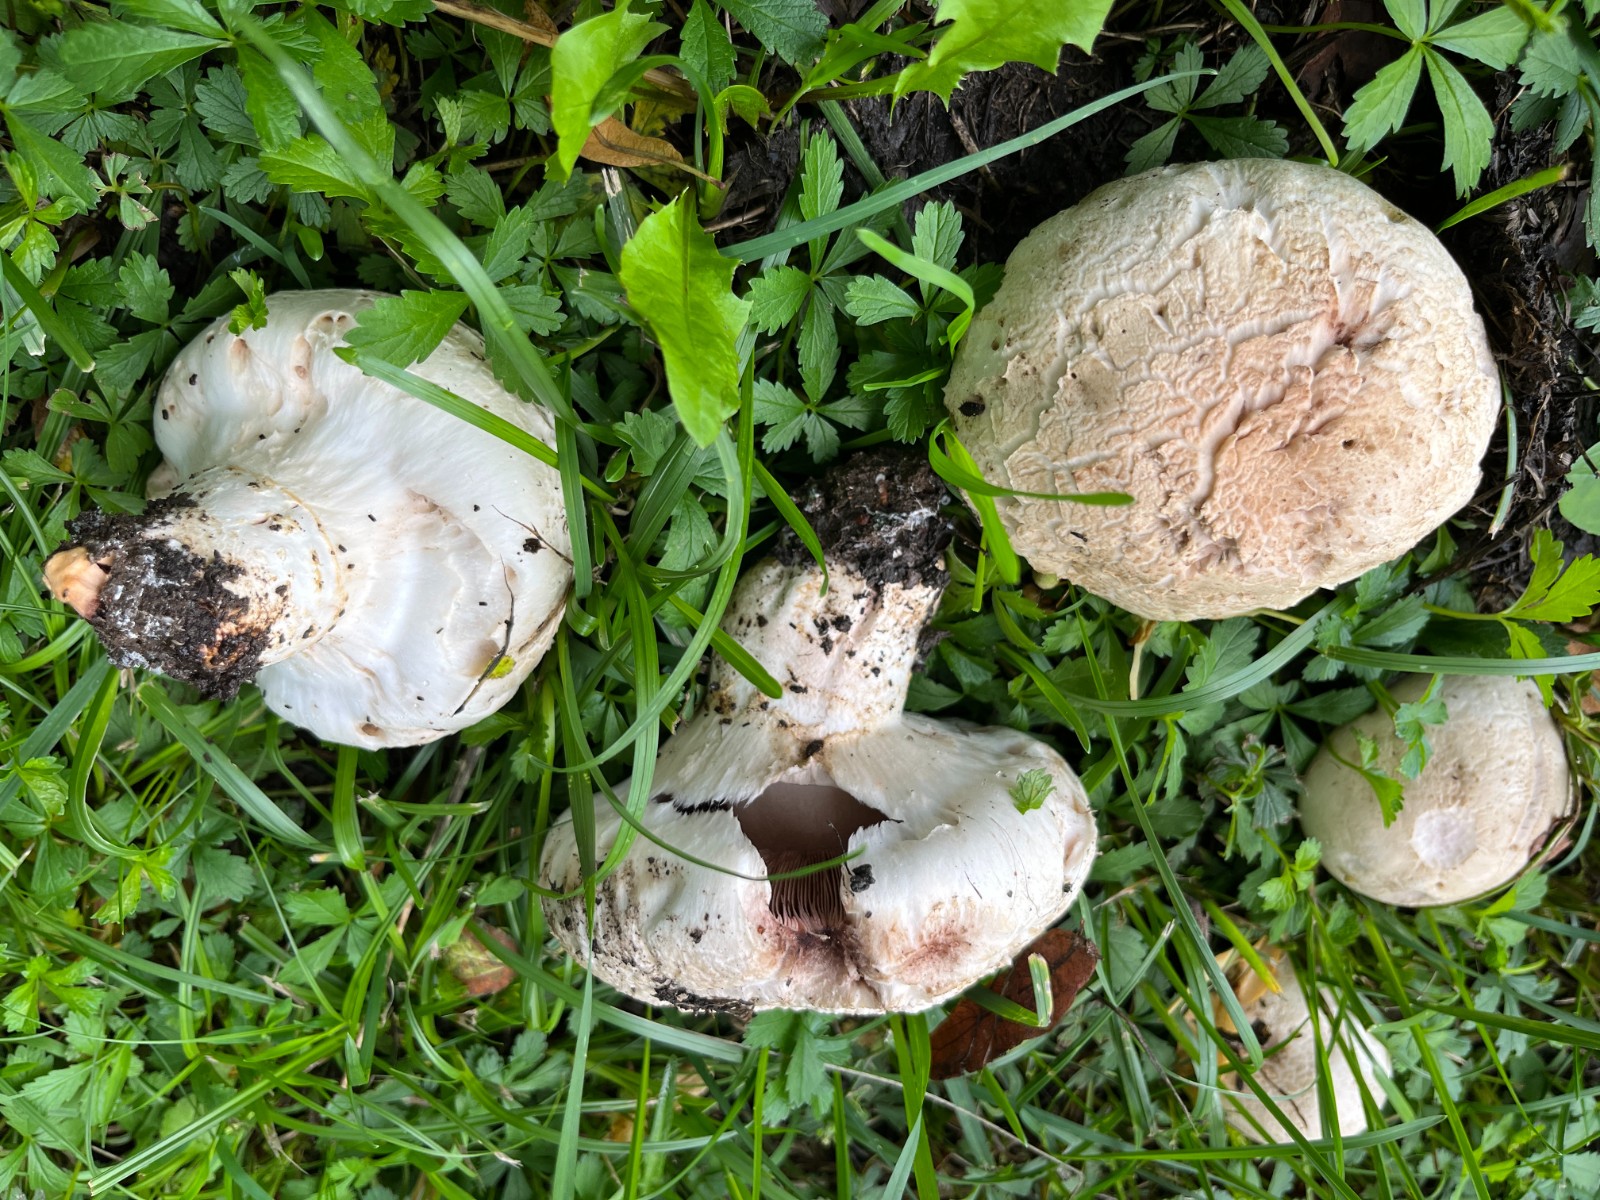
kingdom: Fungi
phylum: Basidiomycota
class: Agaricomycetes
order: Agaricales
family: Agaricaceae
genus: Agaricus
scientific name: Agaricus bitorquis
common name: vej-champignon
